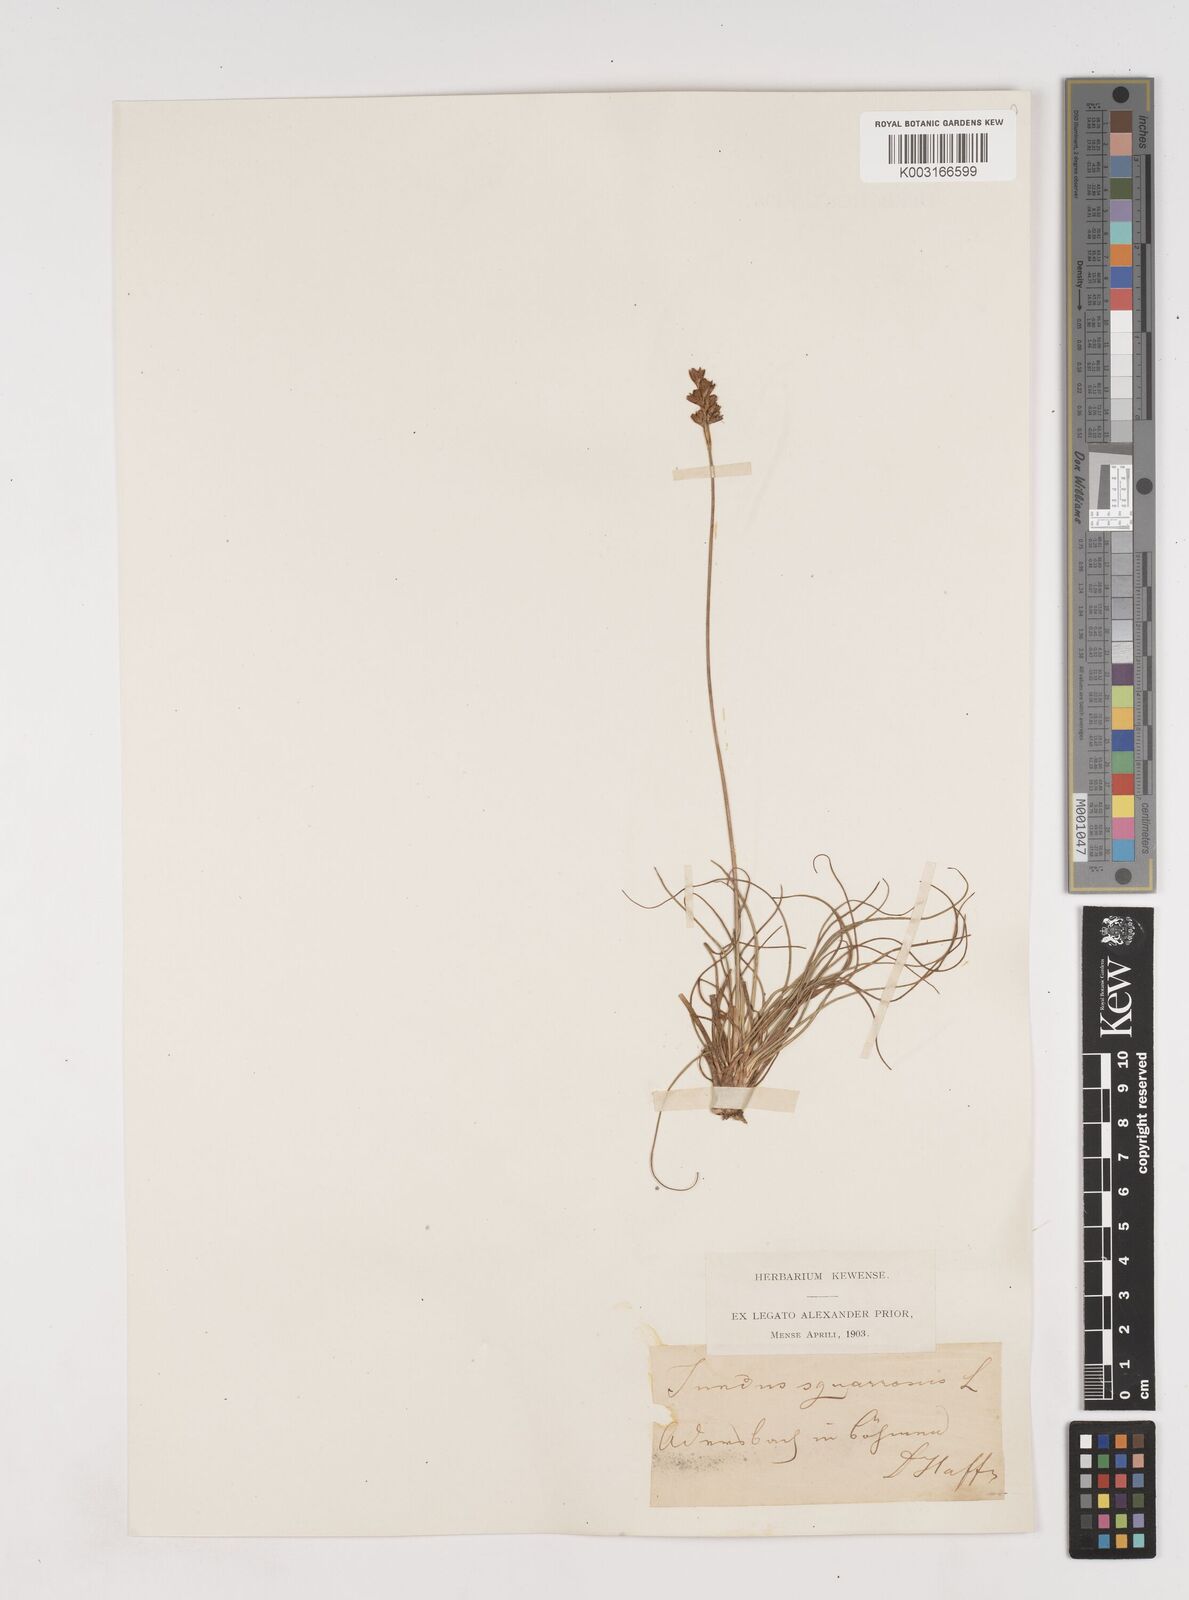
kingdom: Plantae
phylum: Tracheophyta
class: Liliopsida
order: Poales
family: Juncaceae
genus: Juncus
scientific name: Juncus squarrosus
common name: Heath rush
